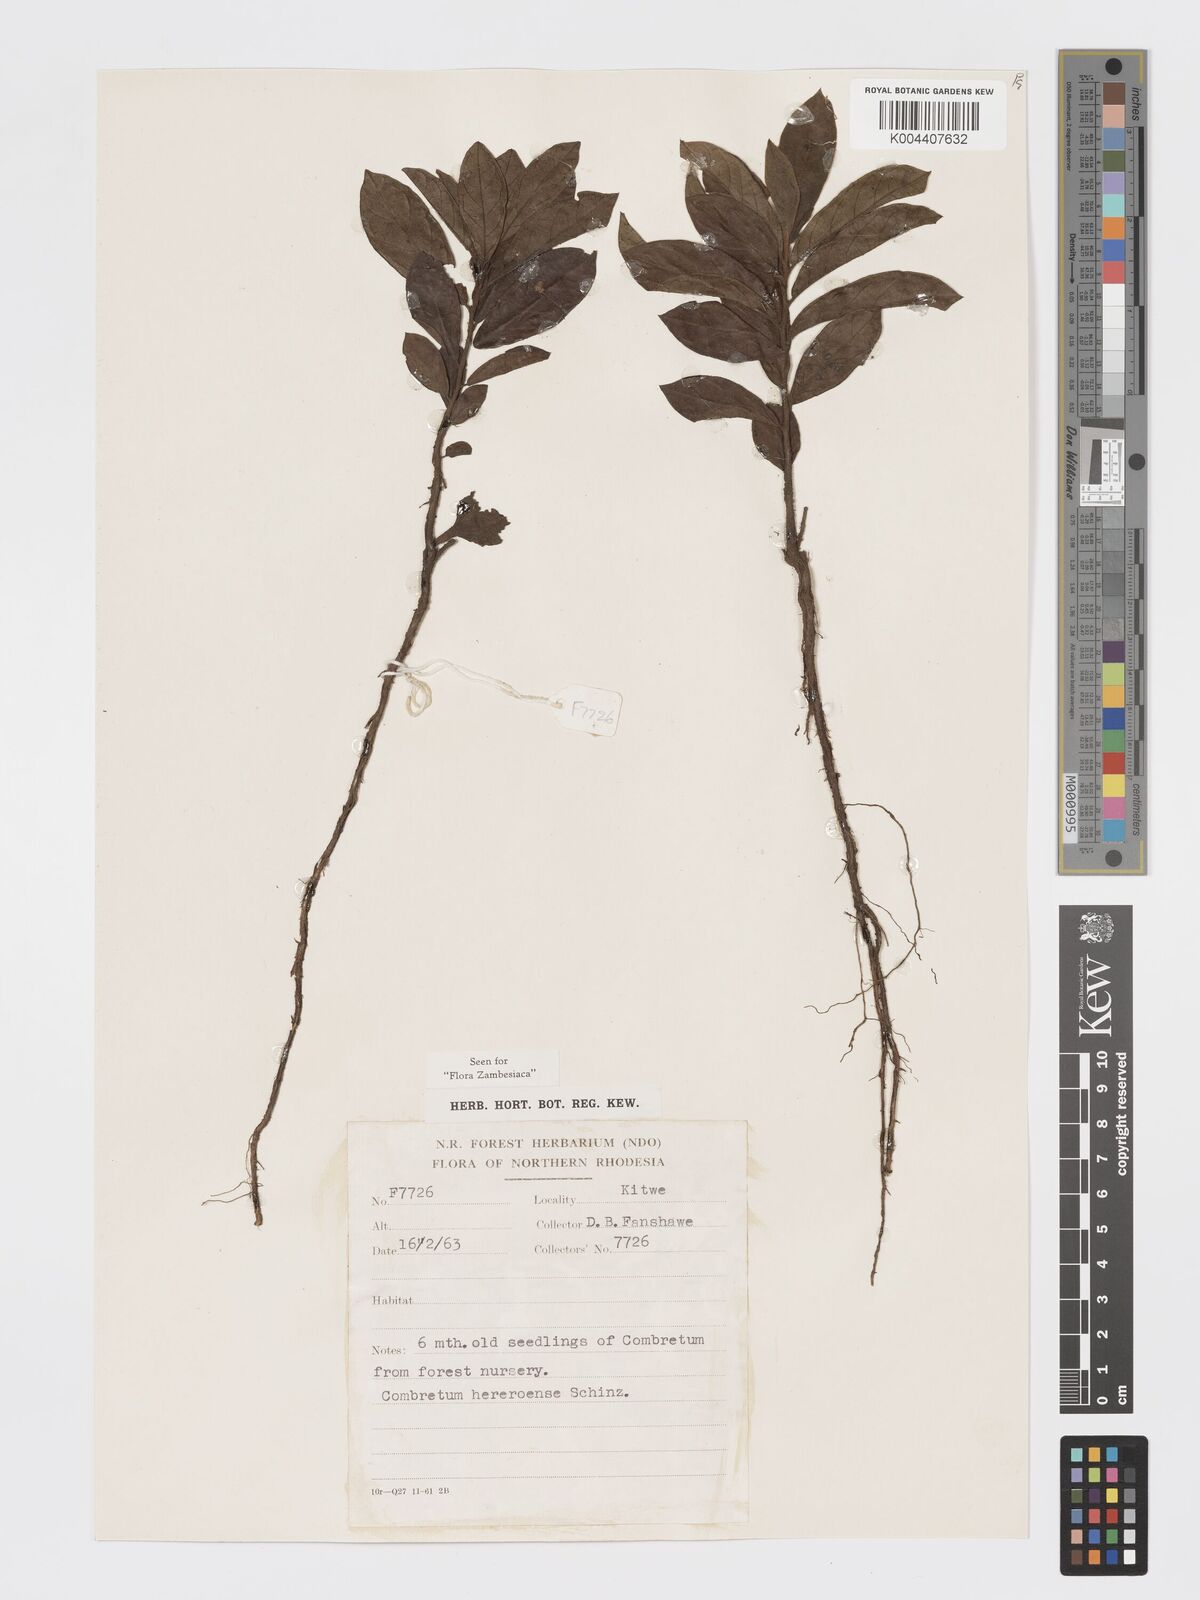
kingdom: Plantae
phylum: Tracheophyta
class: Magnoliopsida
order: Myrtales
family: Combretaceae
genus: Combretum
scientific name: Combretum hereroense
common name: Russet bushwillow
